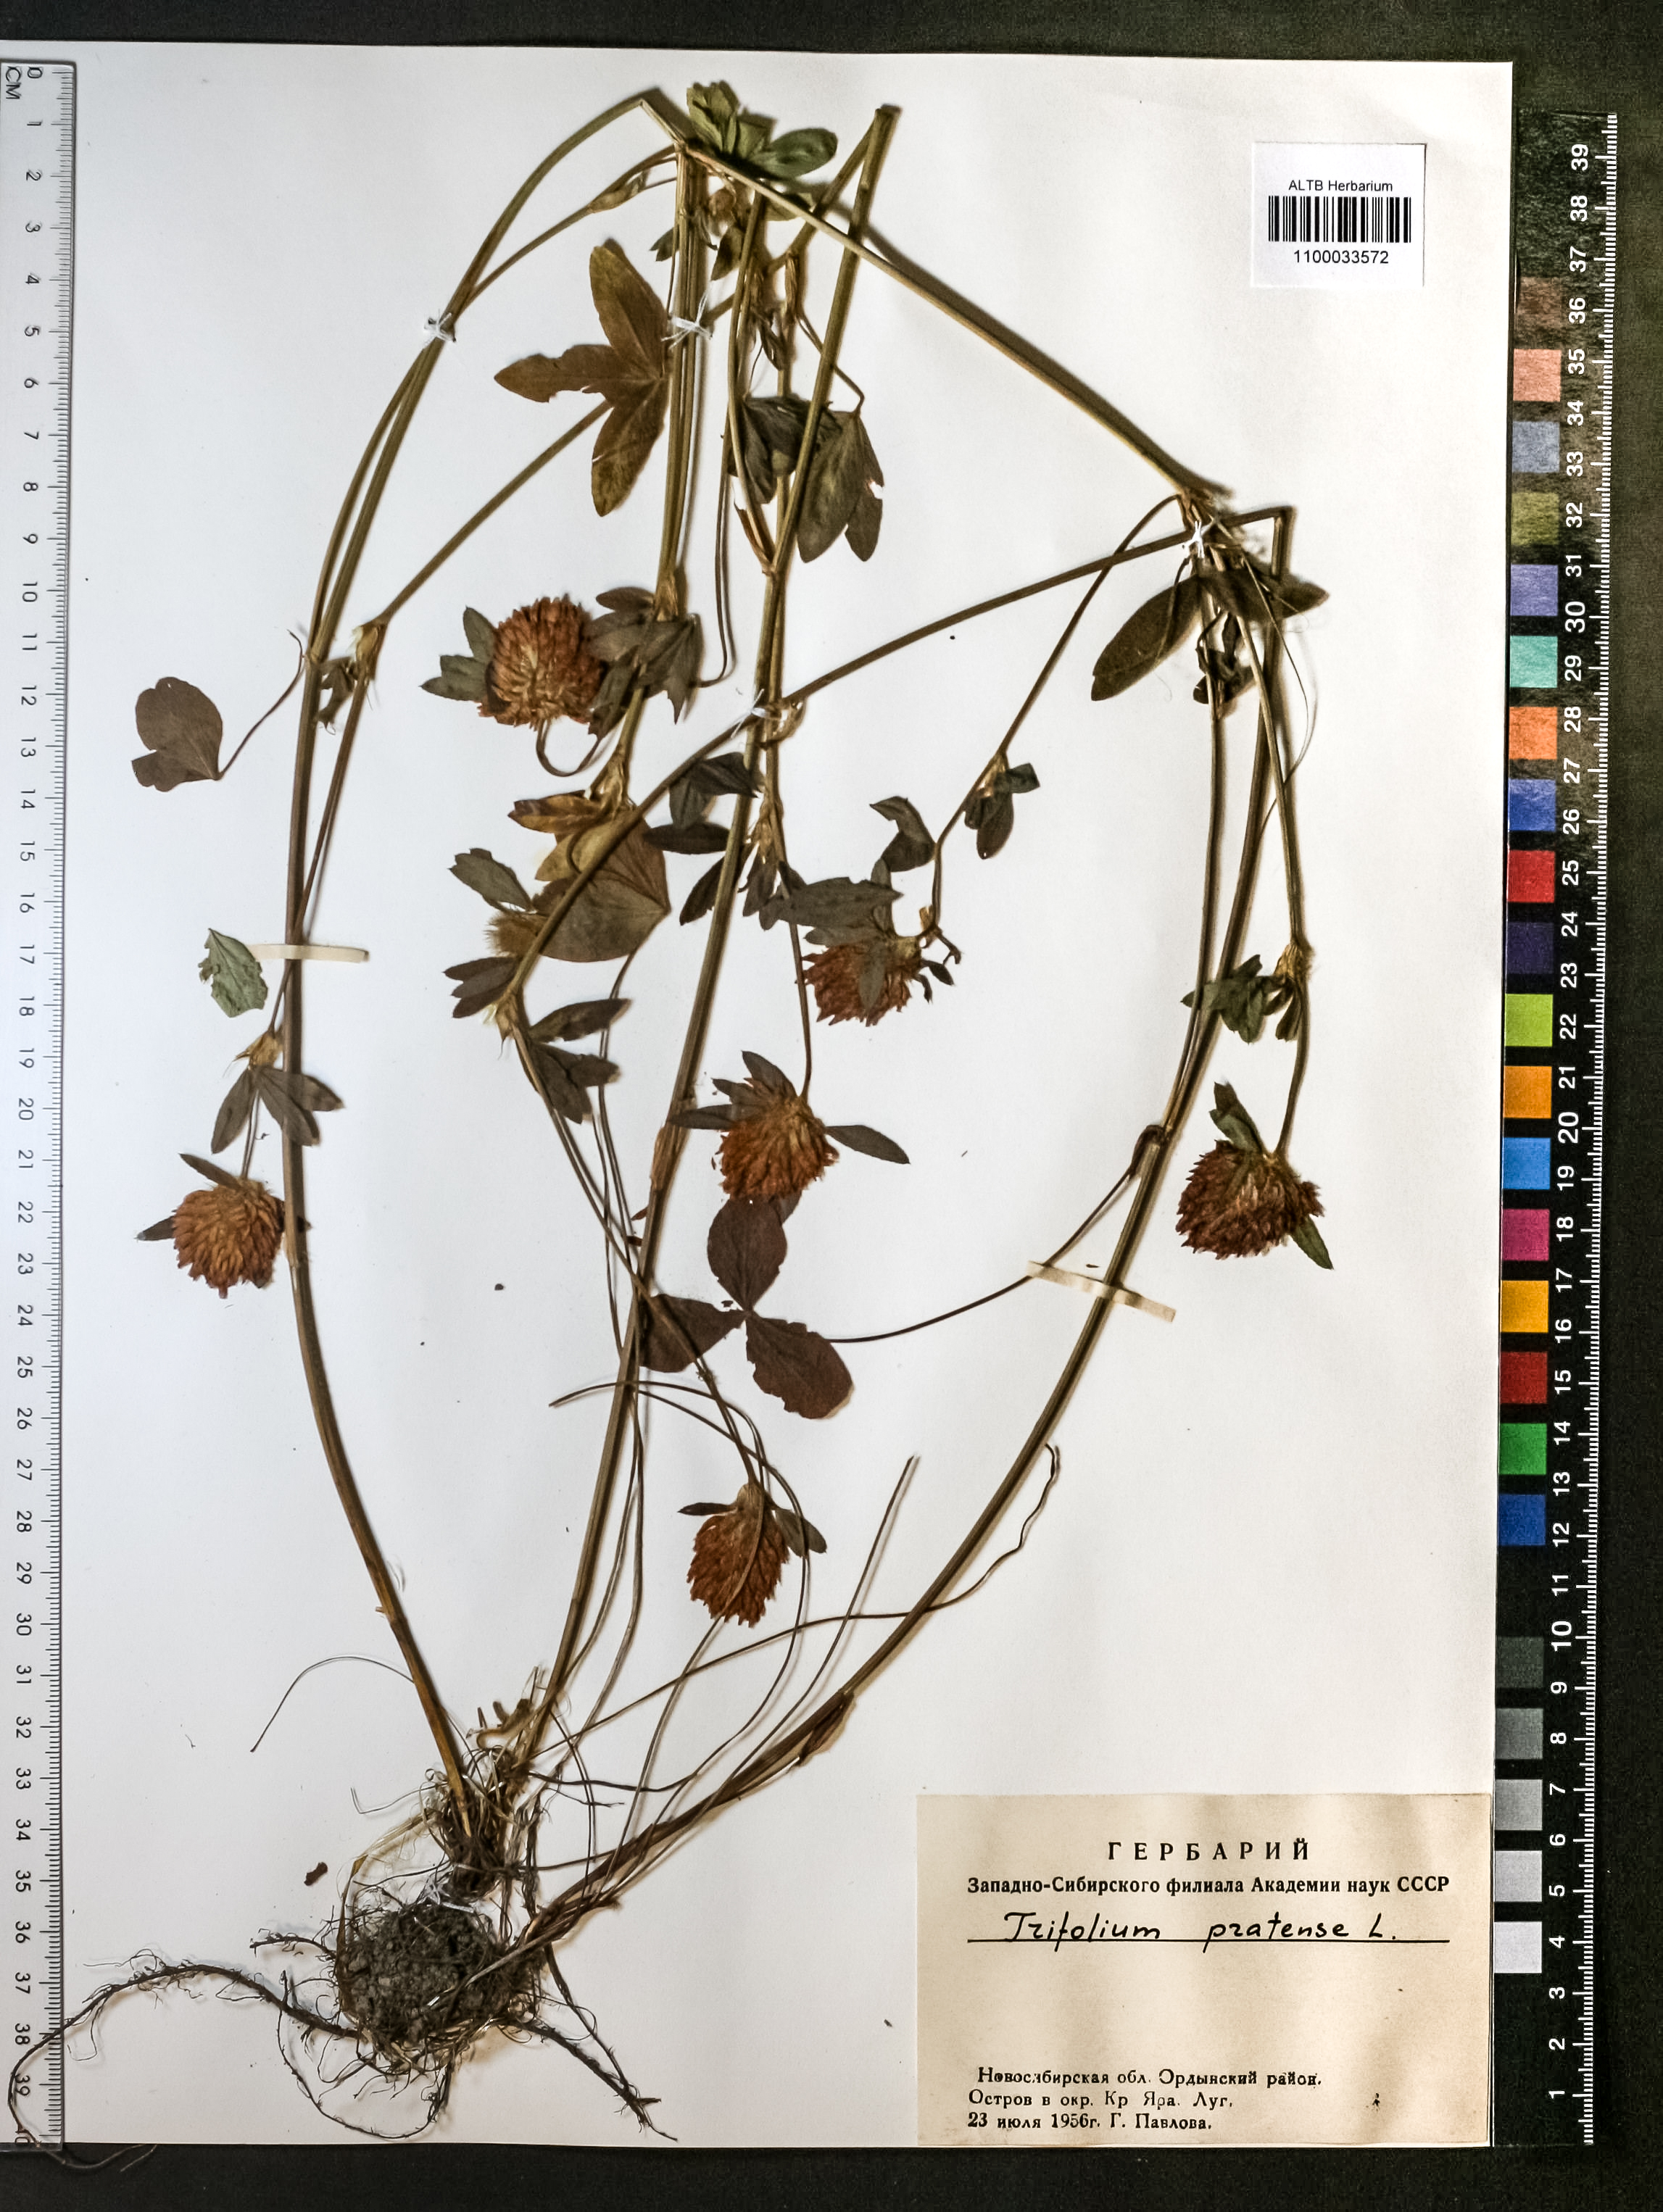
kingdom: Plantae
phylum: Tracheophyta
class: Magnoliopsida
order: Fabales
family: Fabaceae
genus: Trifolium
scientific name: Trifolium pratense
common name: Red clover
